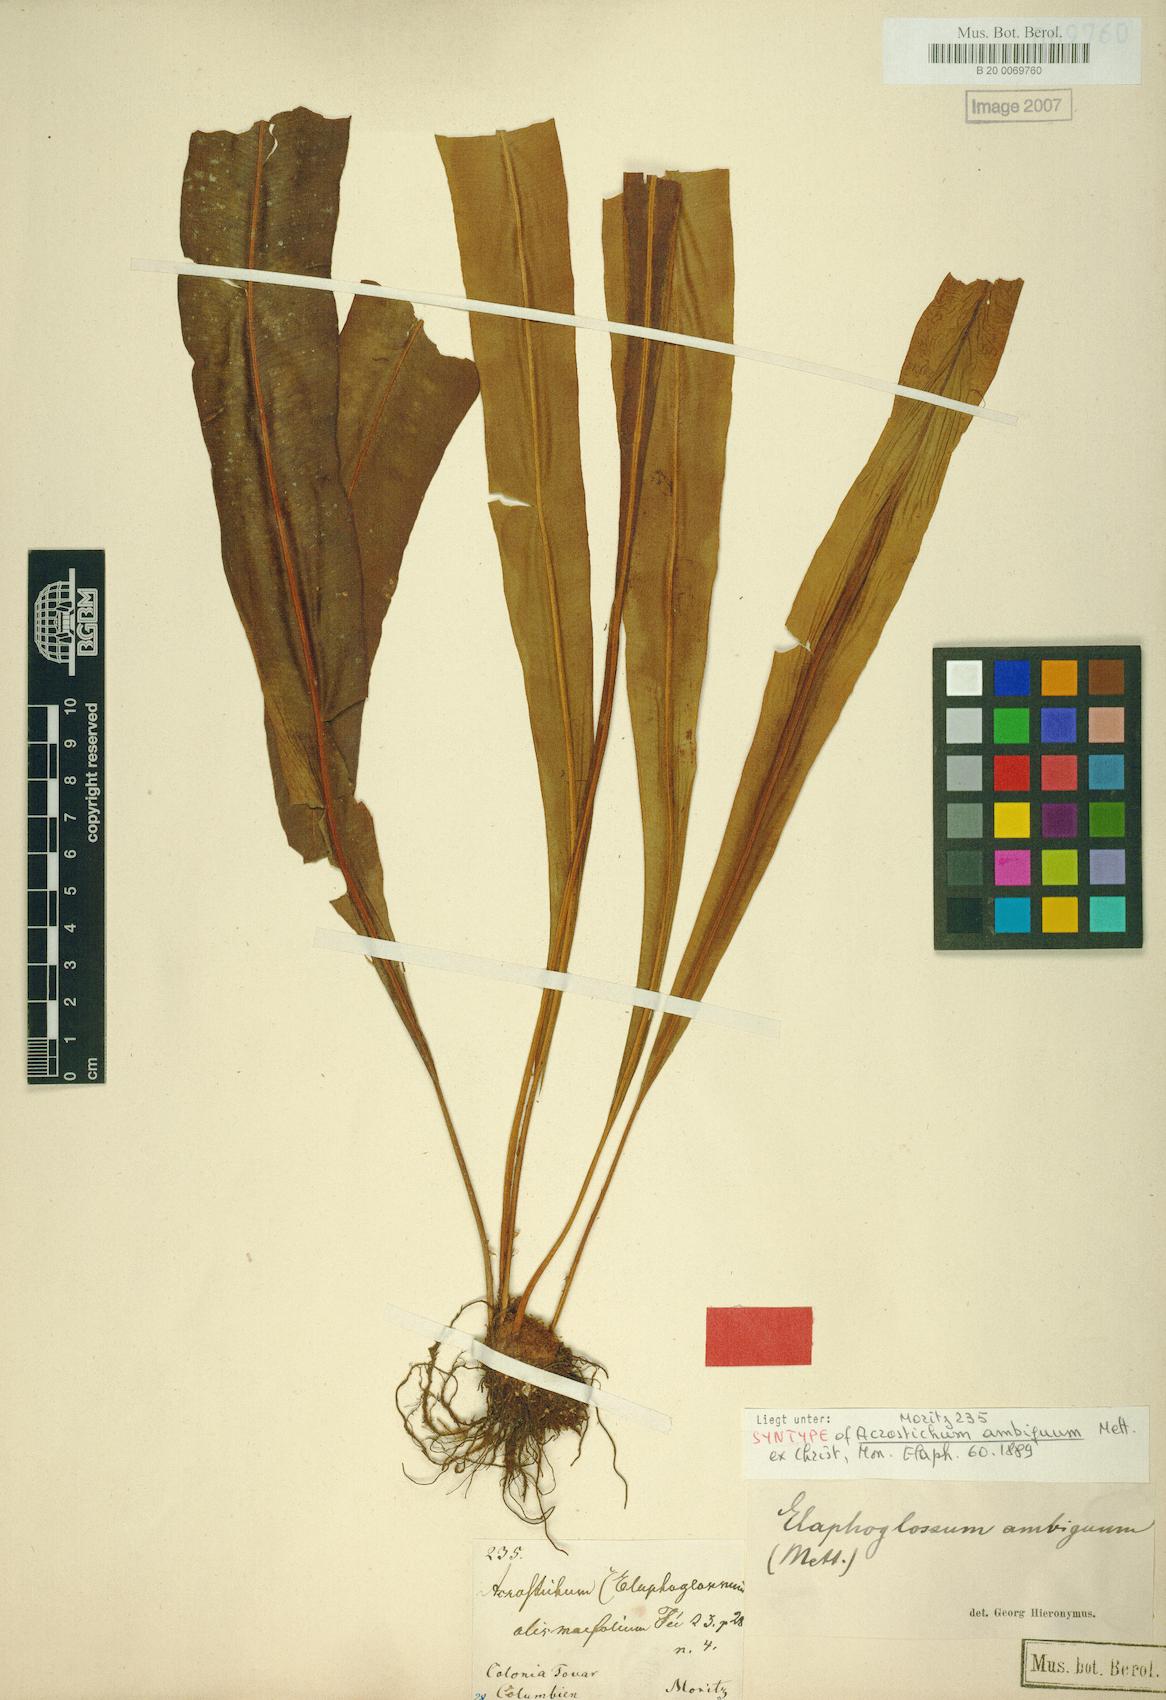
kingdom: Plantae
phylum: Tracheophyta
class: Polypodiopsida
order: Polypodiales
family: Dryopteridaceae
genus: Elaphoglossum
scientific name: Elaphoglossum ambiguum
